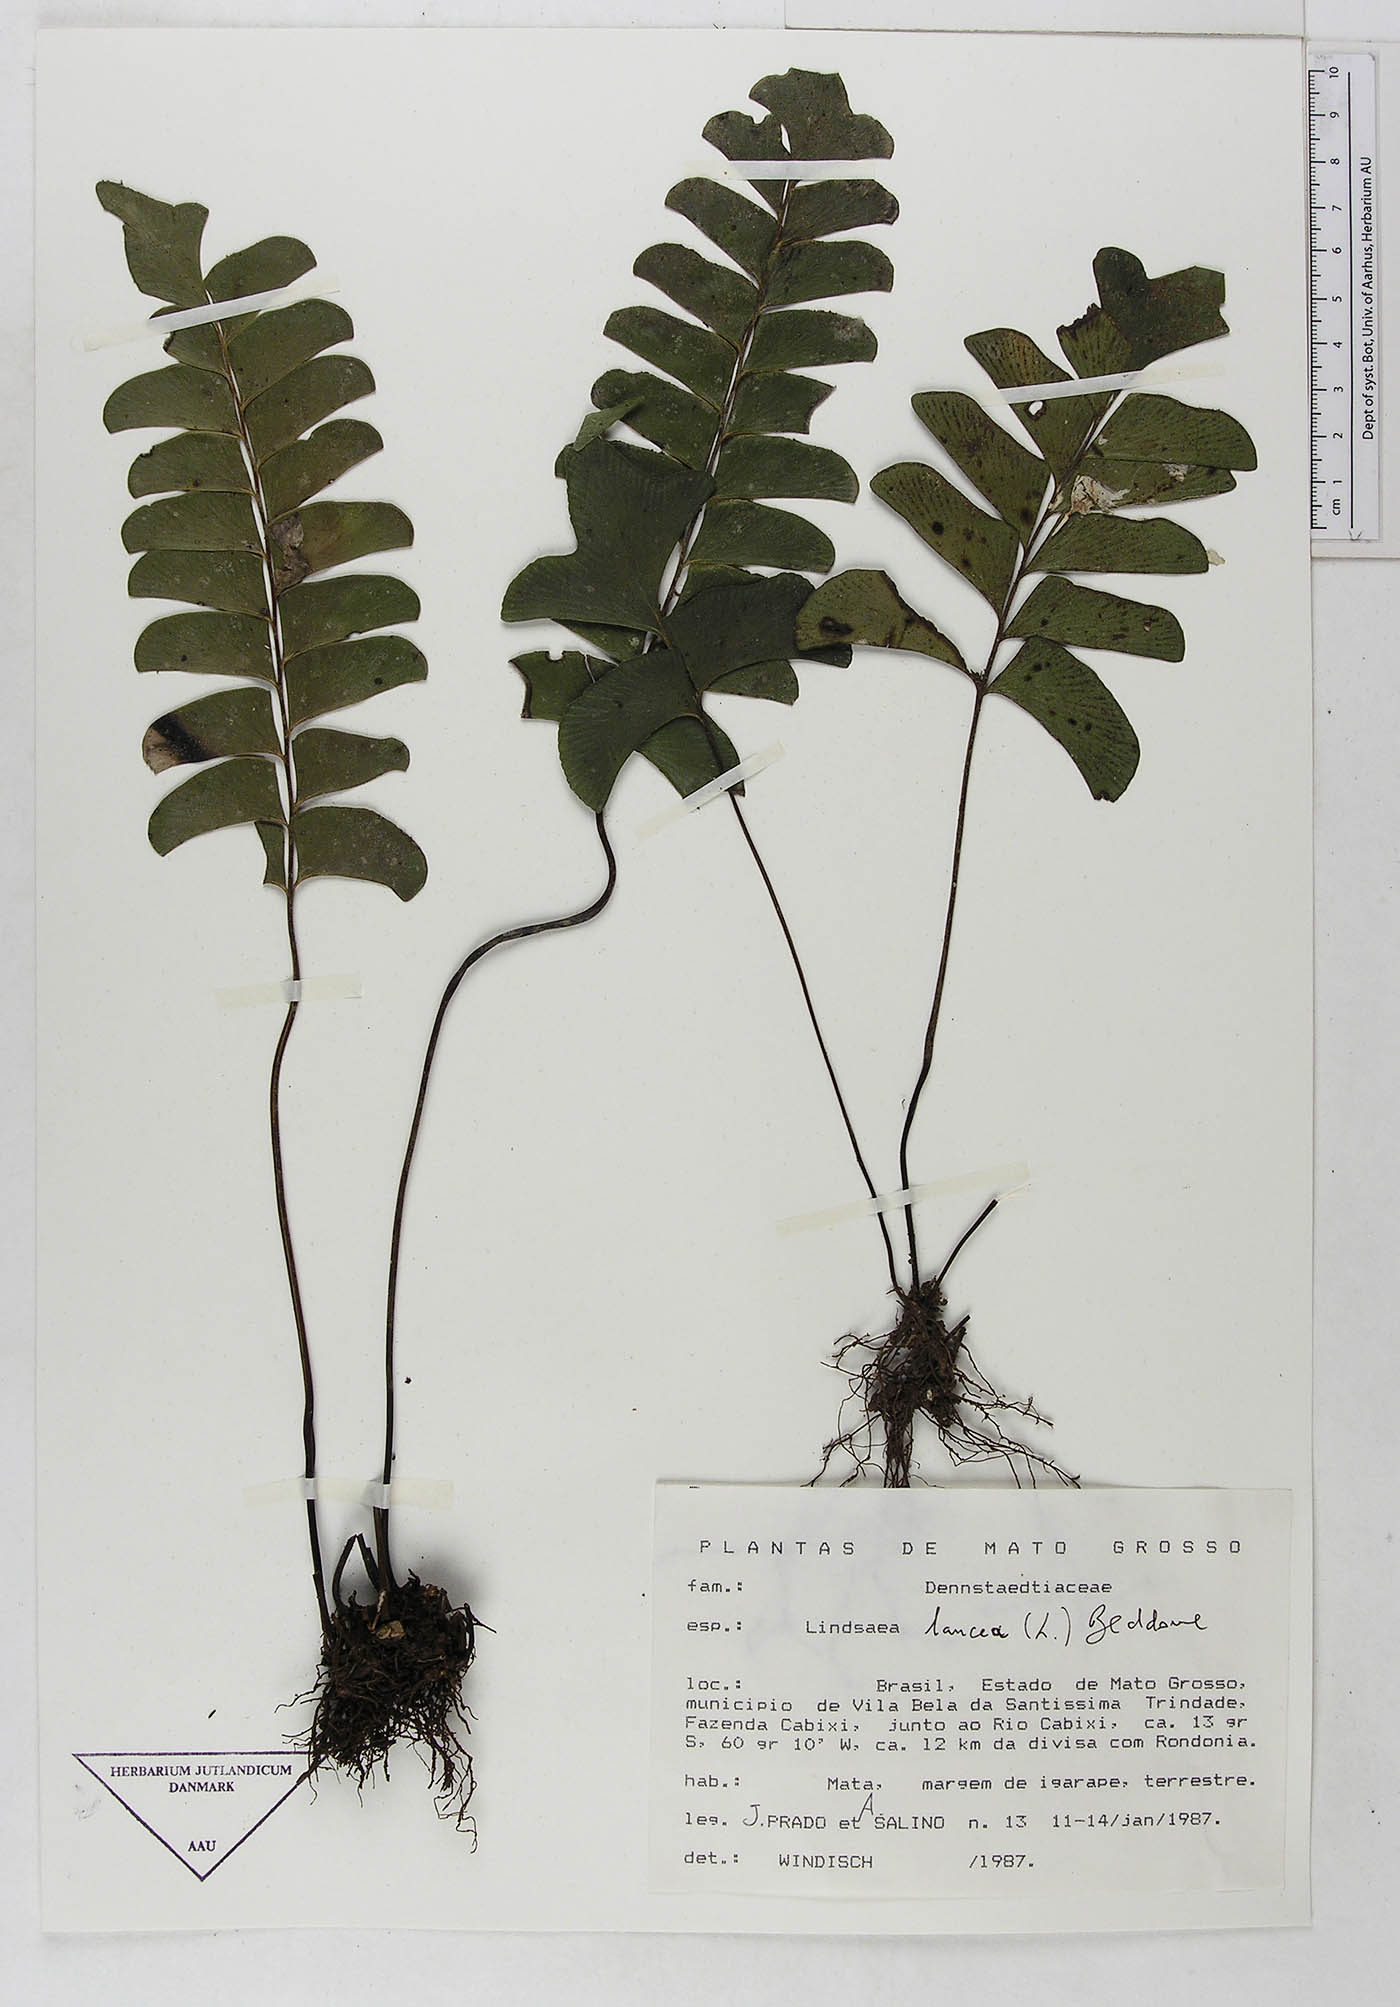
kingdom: Plantae
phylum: Tracheophyta
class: Polypodiopsida
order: Polypodiales
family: Dennstaedtiaceae
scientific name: Dennstaedtiaceae
